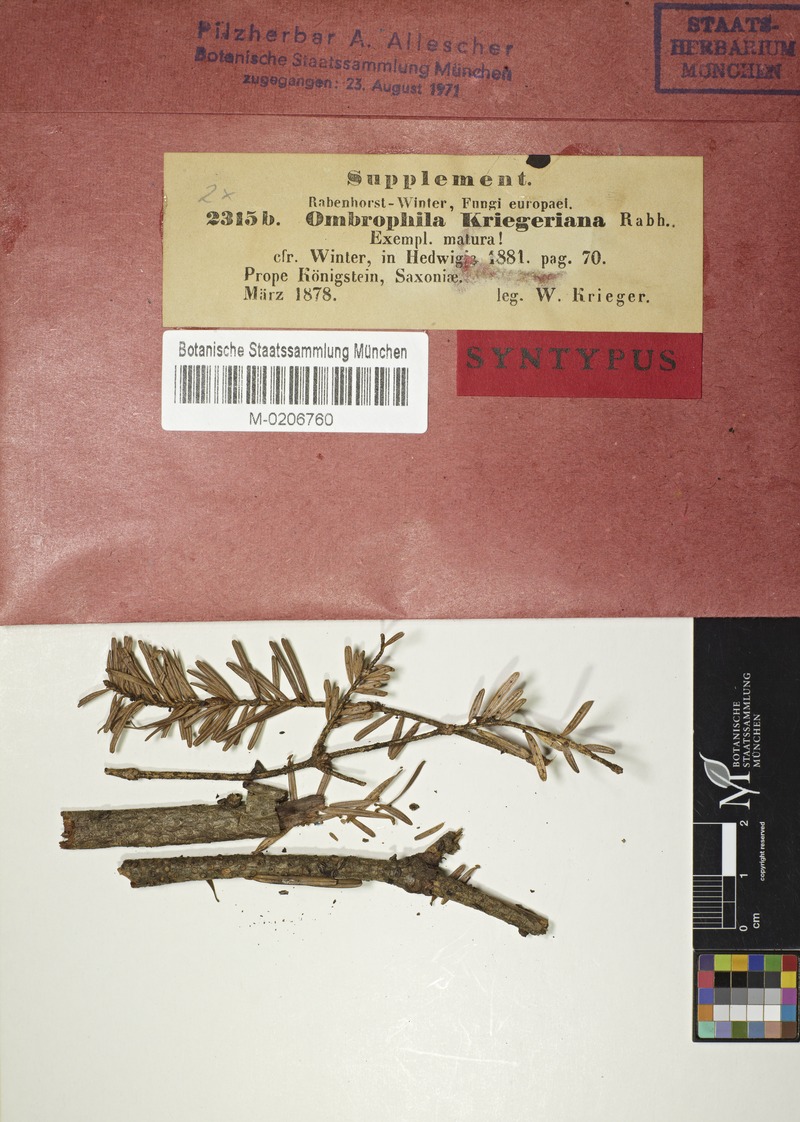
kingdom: Fungi
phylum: Ascomycota
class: Leotiomycetes
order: Helotiales
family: Rutstroemiaceae
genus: Rutstroemia
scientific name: Rutstroemia elatina
